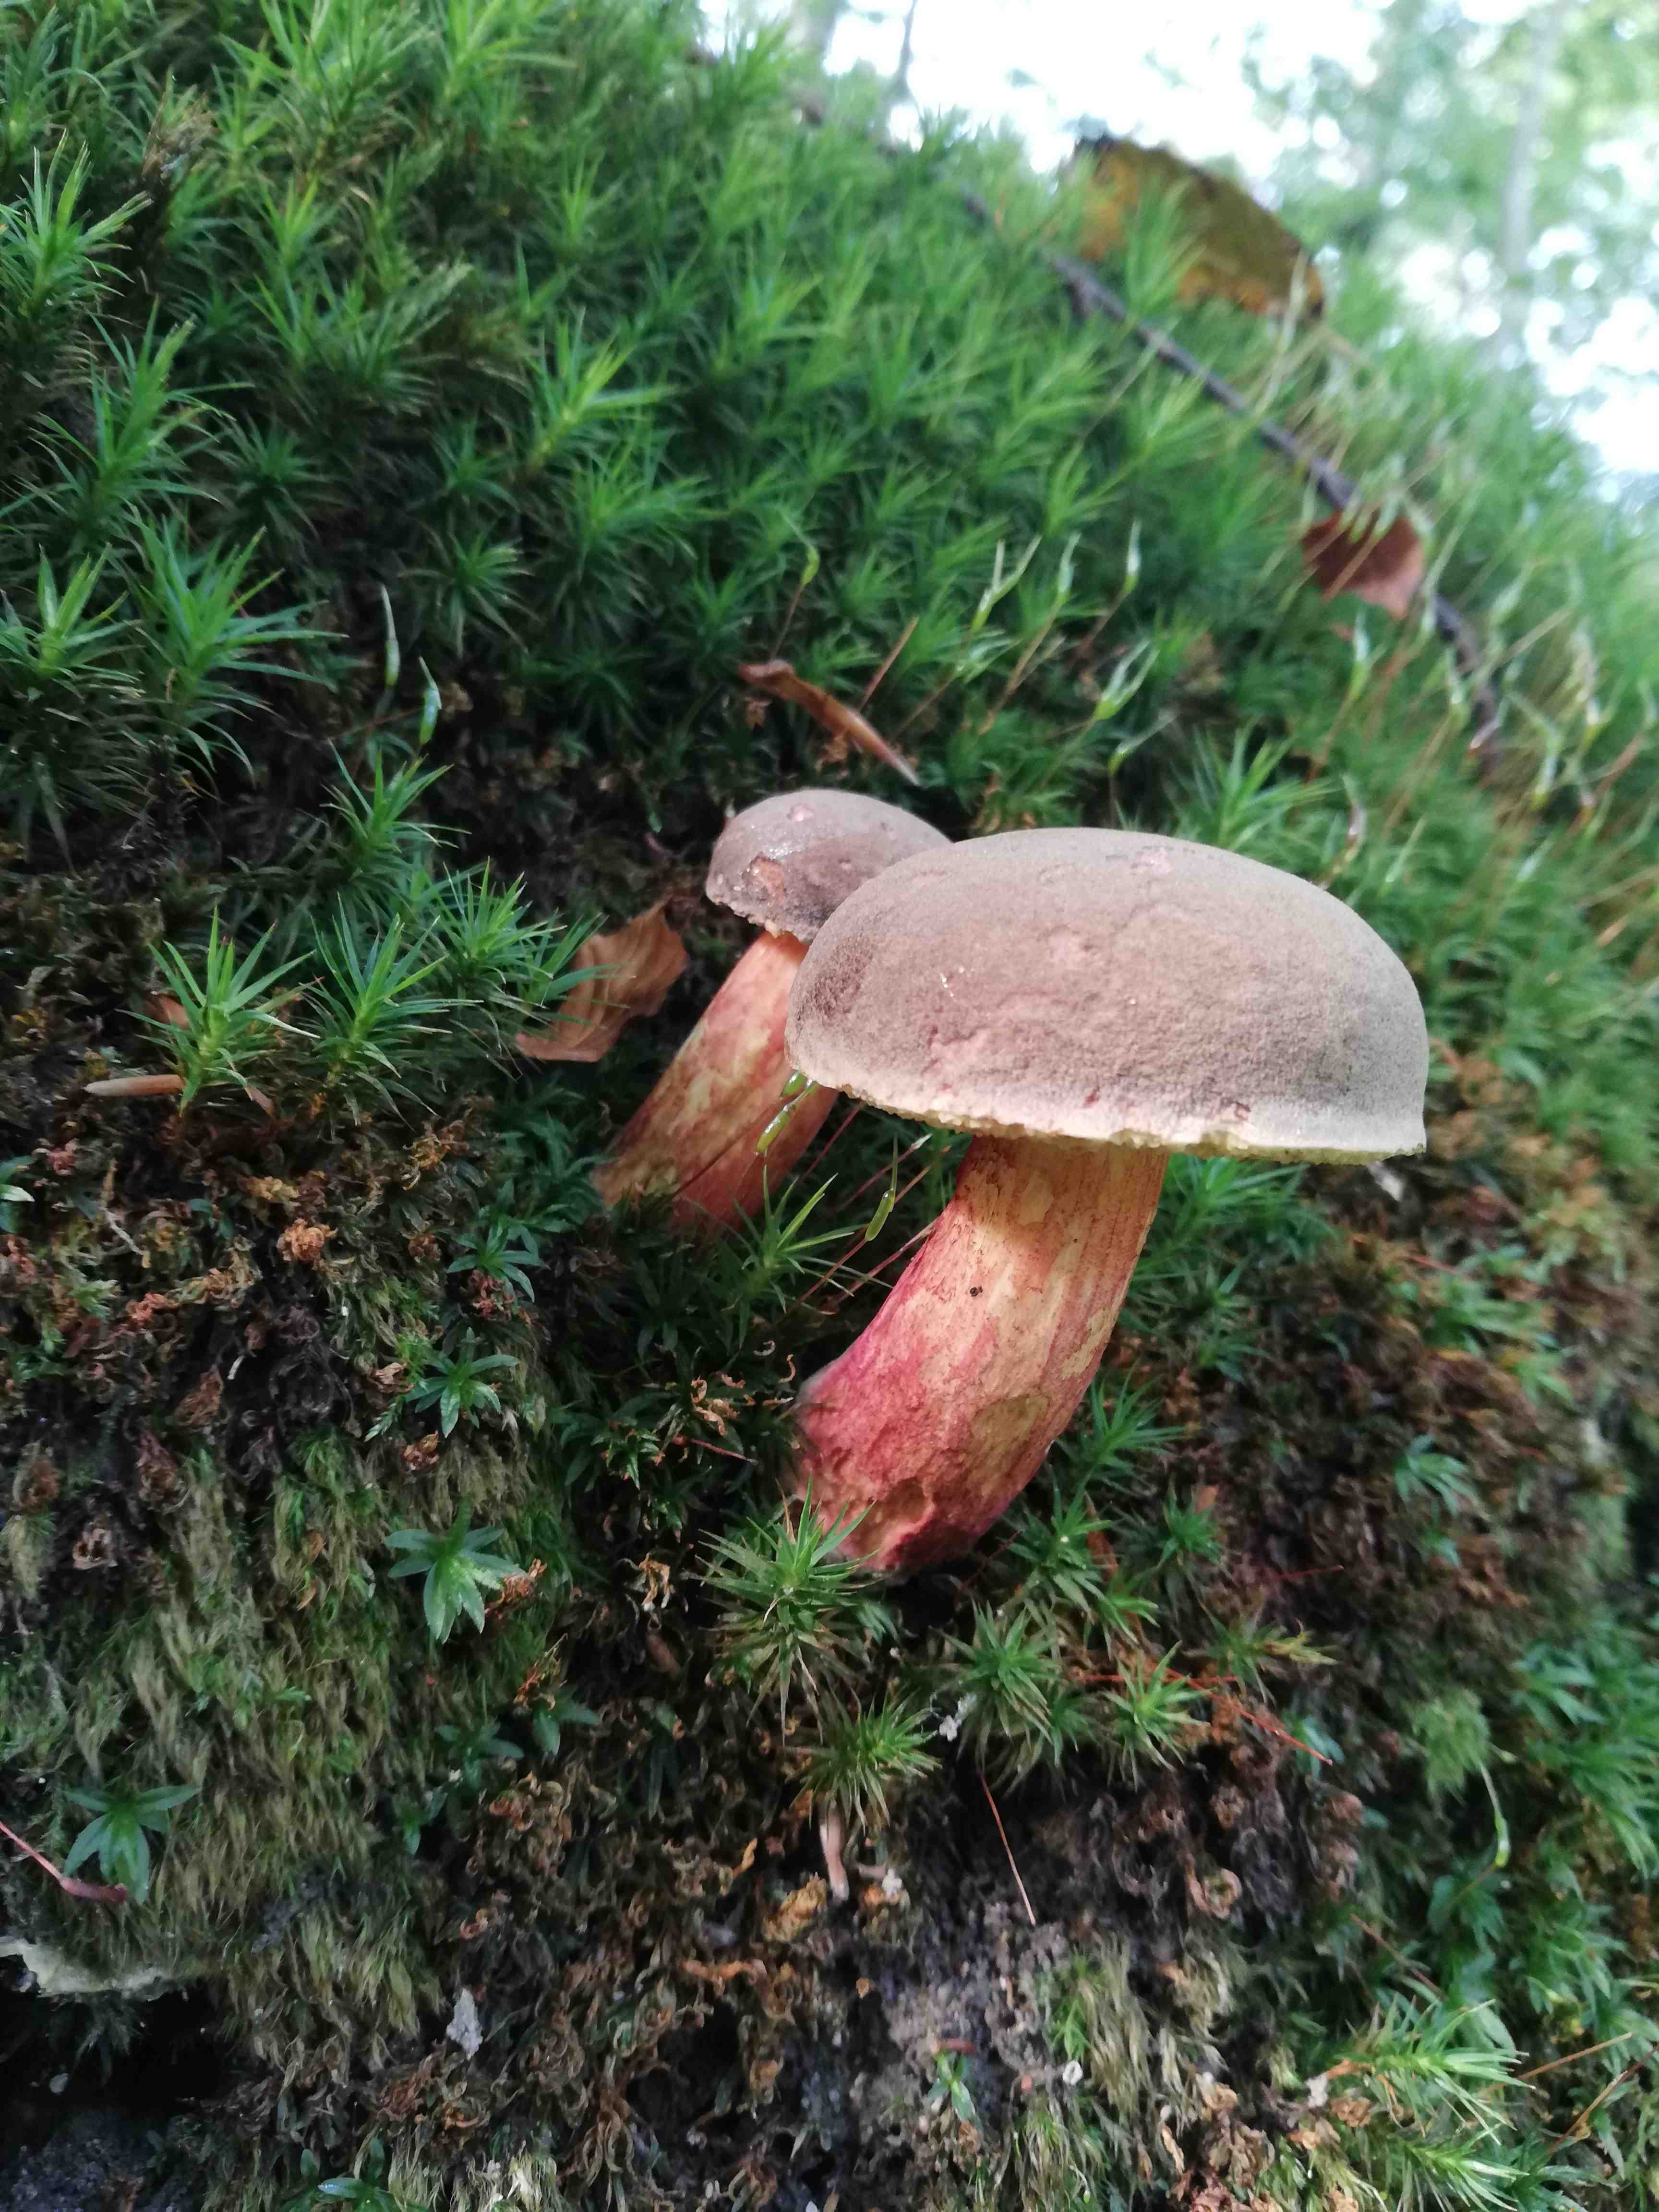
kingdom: Fungi
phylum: Basidiomycota
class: Agaricomycetes
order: Boletales
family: Boletaceae
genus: Xerocomellus
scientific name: Xerocomellus
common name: dværgrørhat
